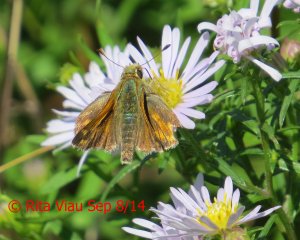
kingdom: Animalia
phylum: Arthropoda
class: Insecta
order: Lepidoptera
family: Hesperiidae
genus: Hesperia
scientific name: Hesperia comma
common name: Common Branded Skipper
